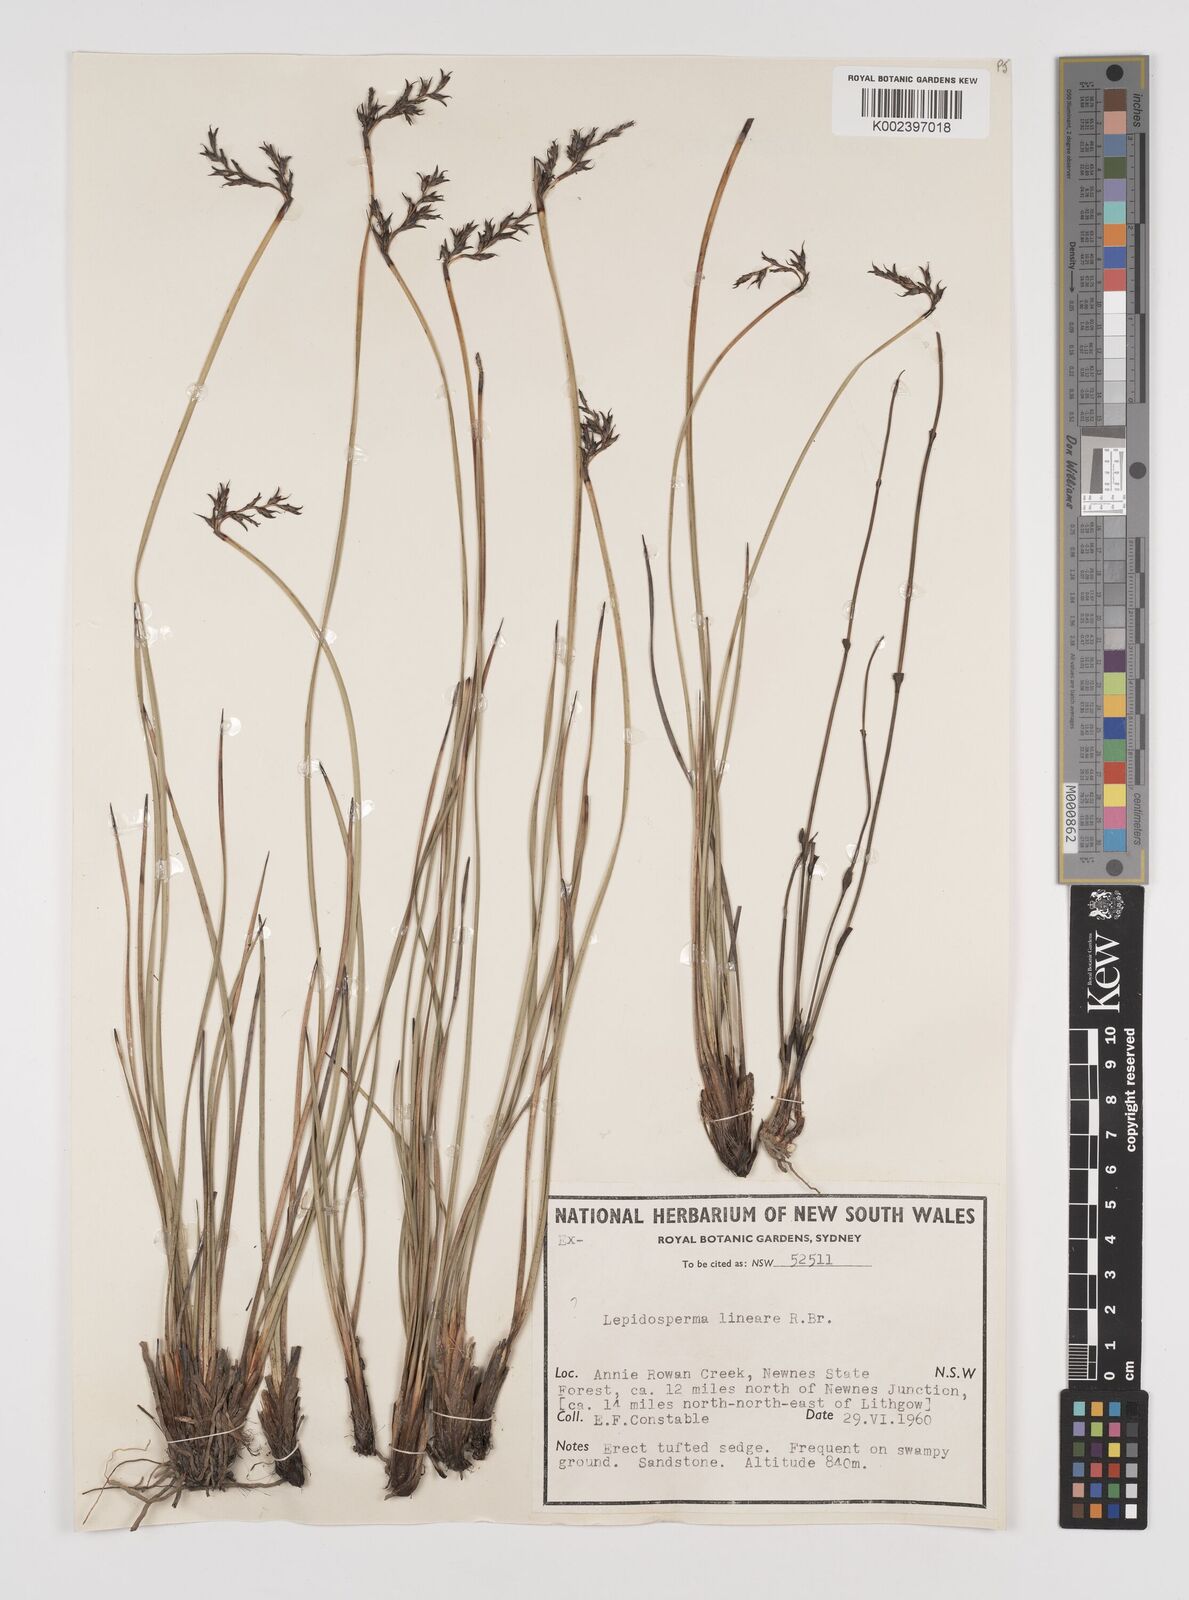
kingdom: Plantae
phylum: Tracheophyta
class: Liliopsida
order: Poales
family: Cyperaceae
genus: Lepidosperma
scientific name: Lepidosperma lineare
